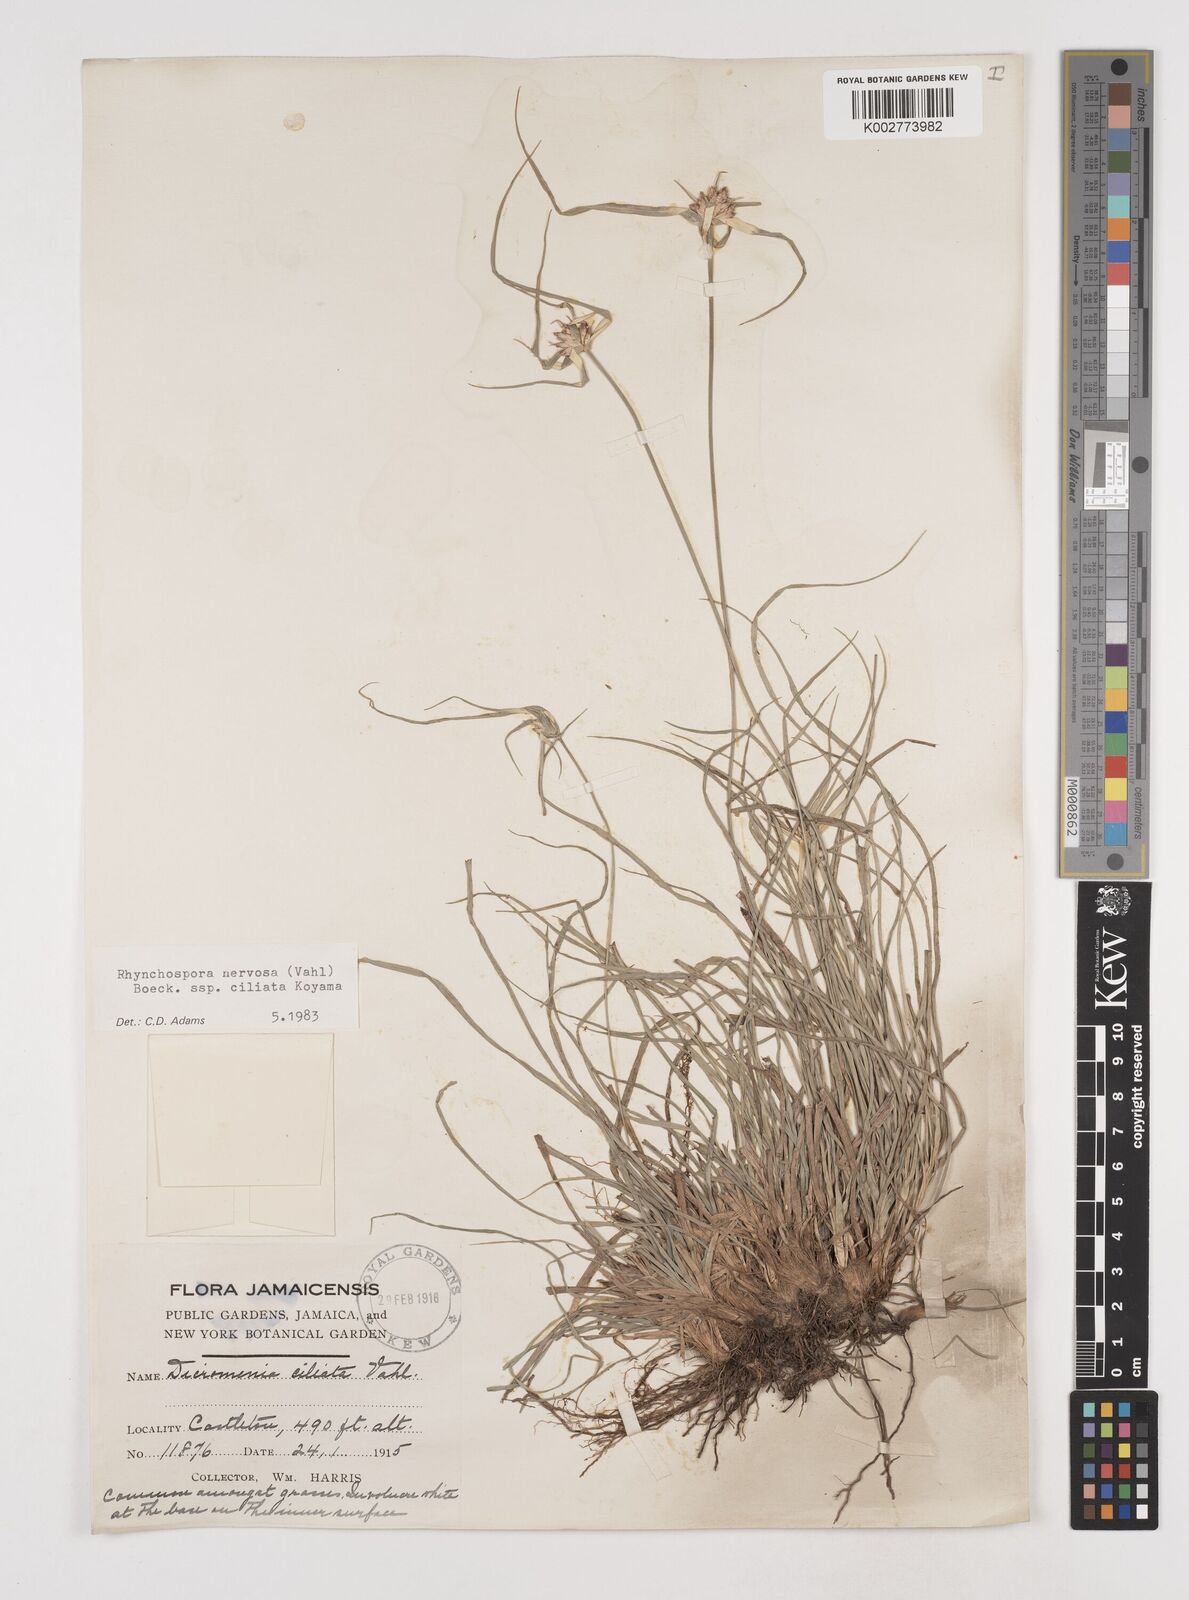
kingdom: Plantae
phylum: Tracheophyta
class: Liliopsida
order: Poales
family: Cyperaceae
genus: Rhynchospora
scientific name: Rhynchospora pura
